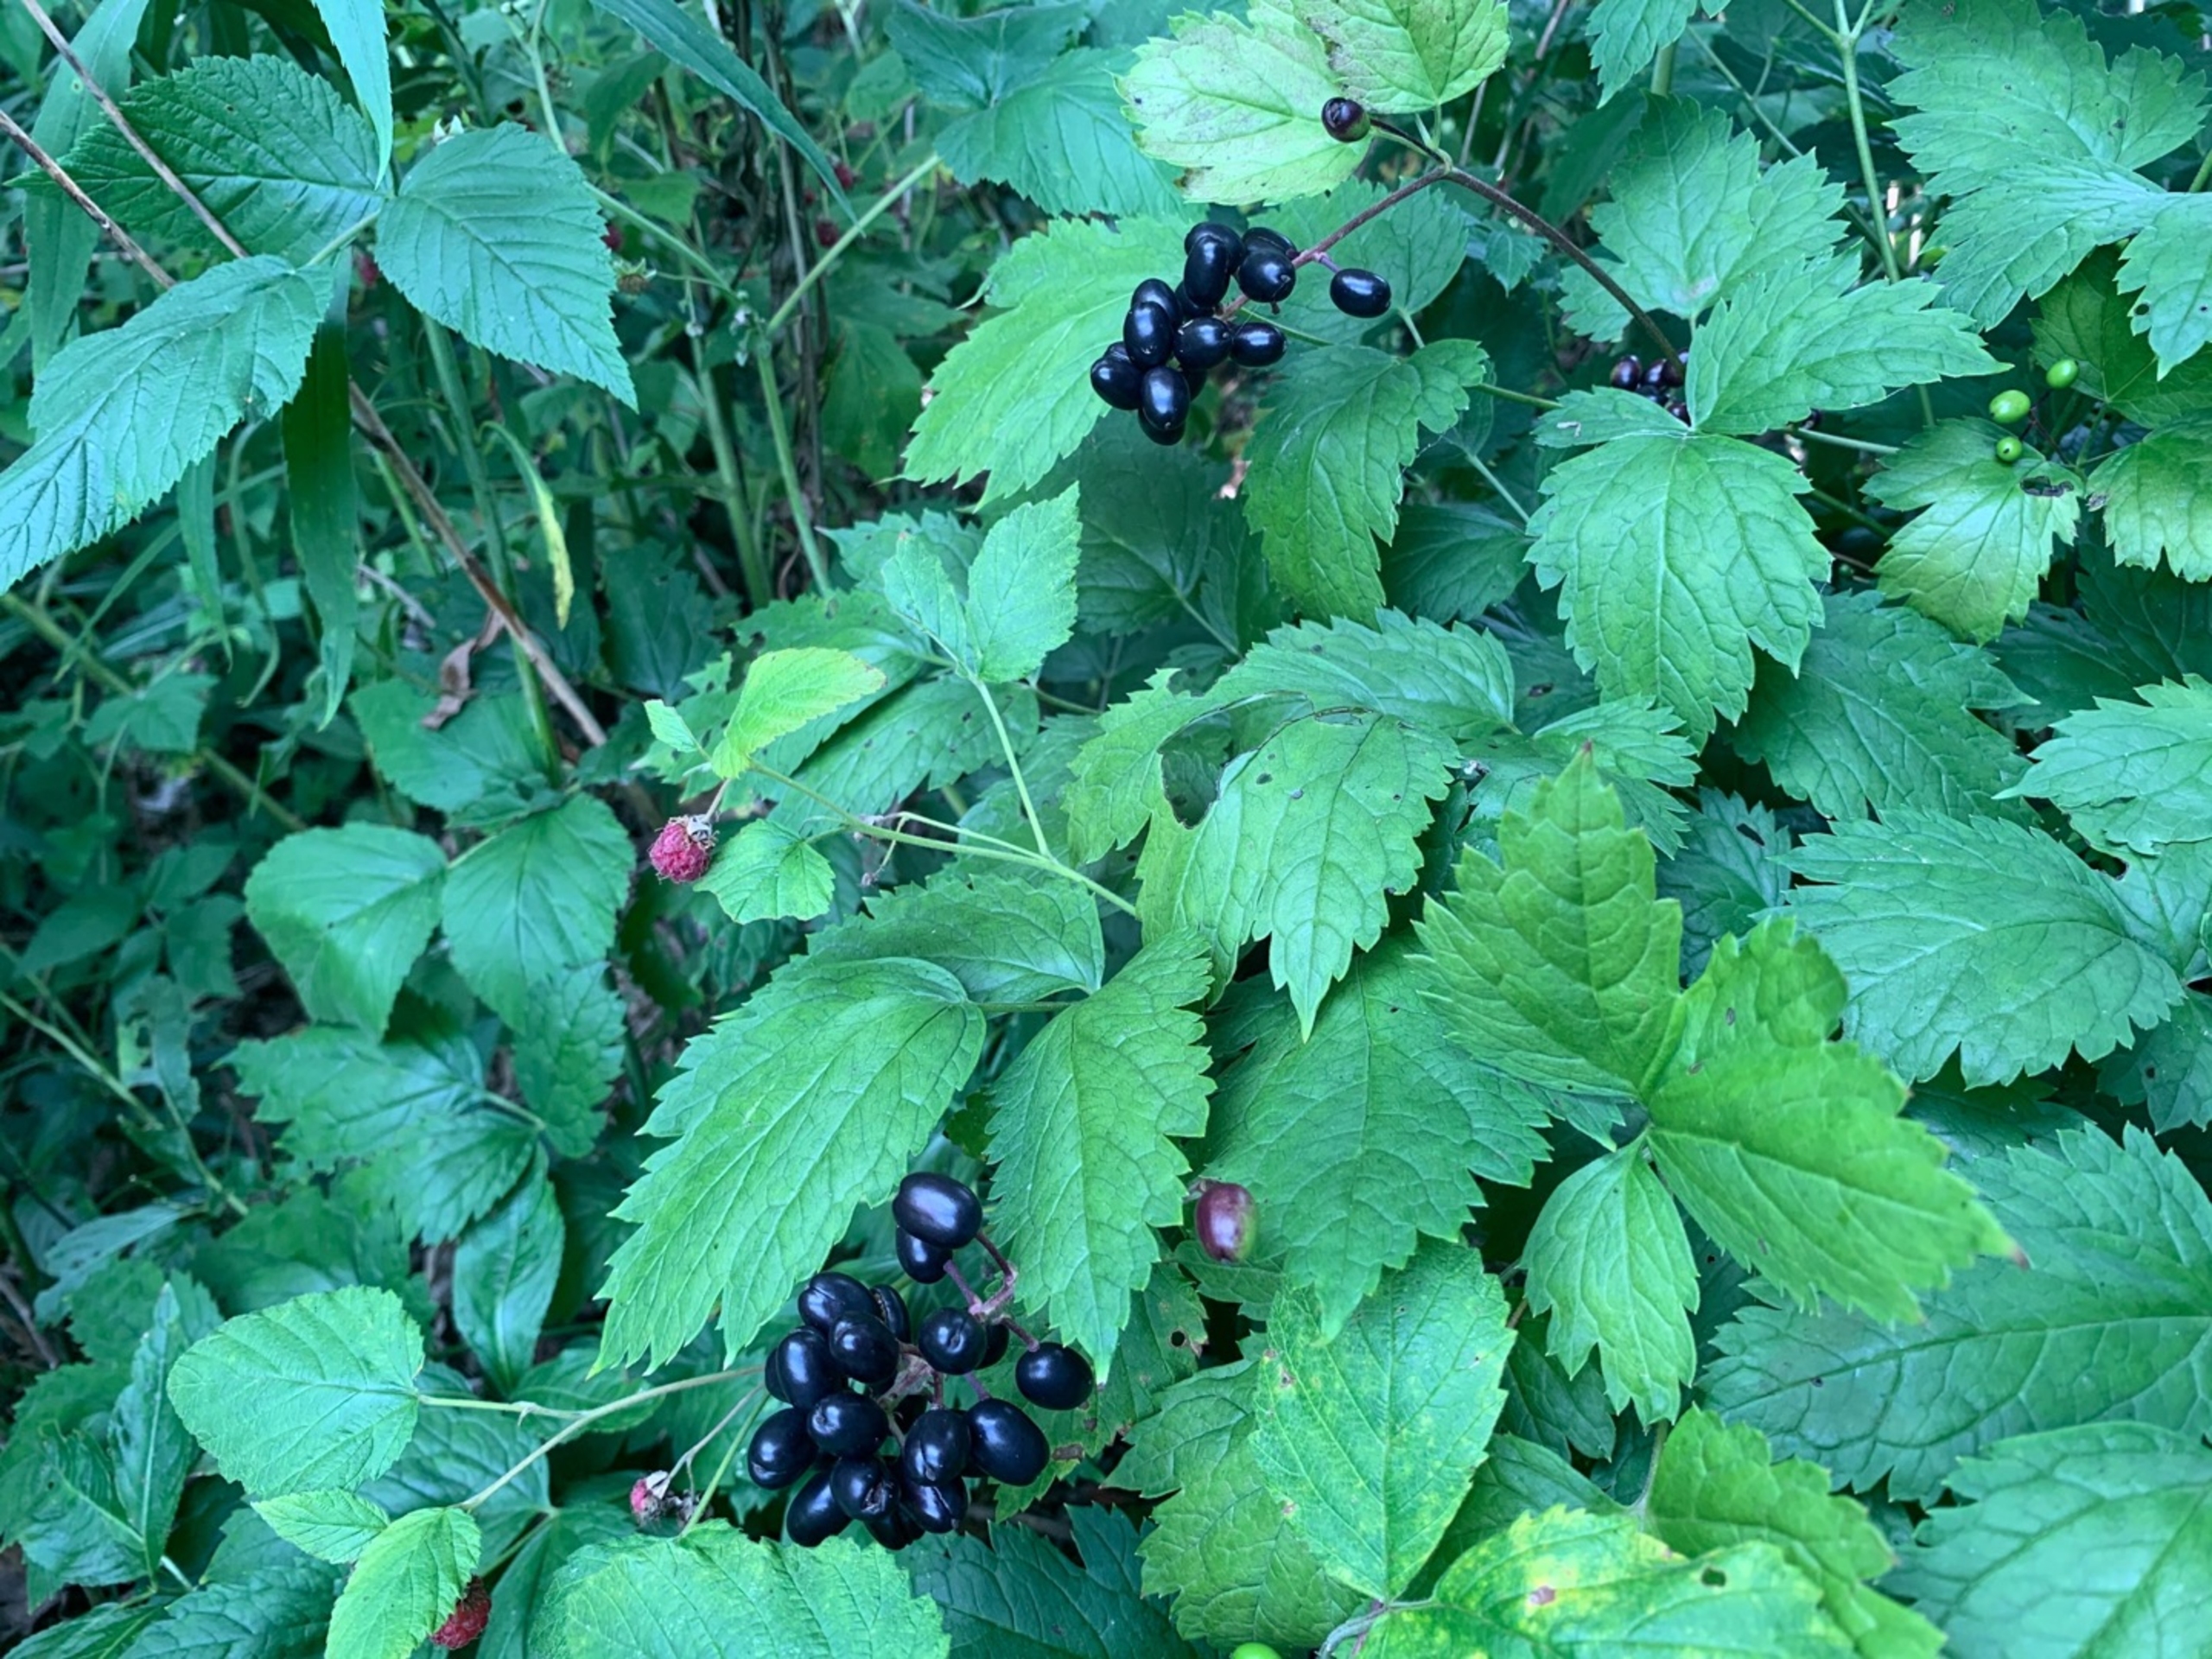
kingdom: Plantae
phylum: Tracheophyta
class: Magnoliopsida
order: Ranunculales
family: Ranunculaceae
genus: Actaea
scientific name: Actaea spicata
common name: Druemunke
